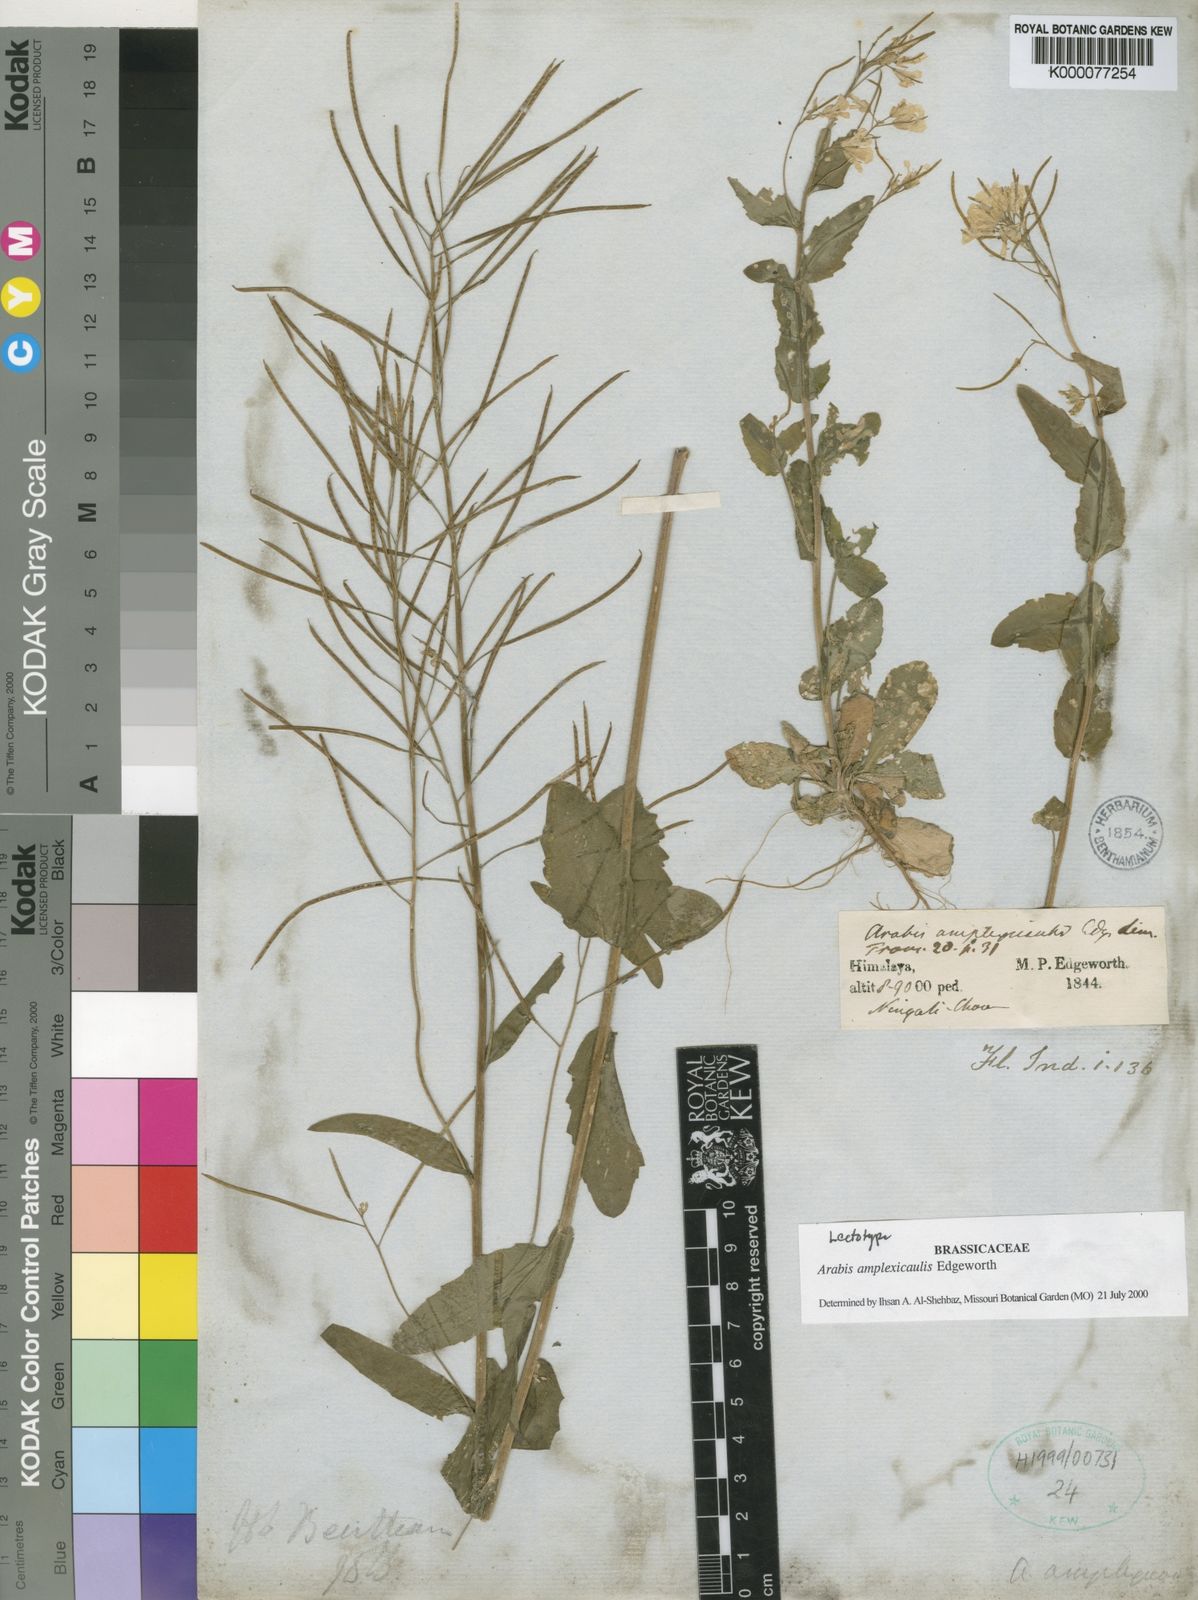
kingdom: Plantae
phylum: Tracheophyta
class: Magnoliopsida
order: Brassicales
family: Brassicaceae
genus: Arabis
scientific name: Arabis amplexicaulis
